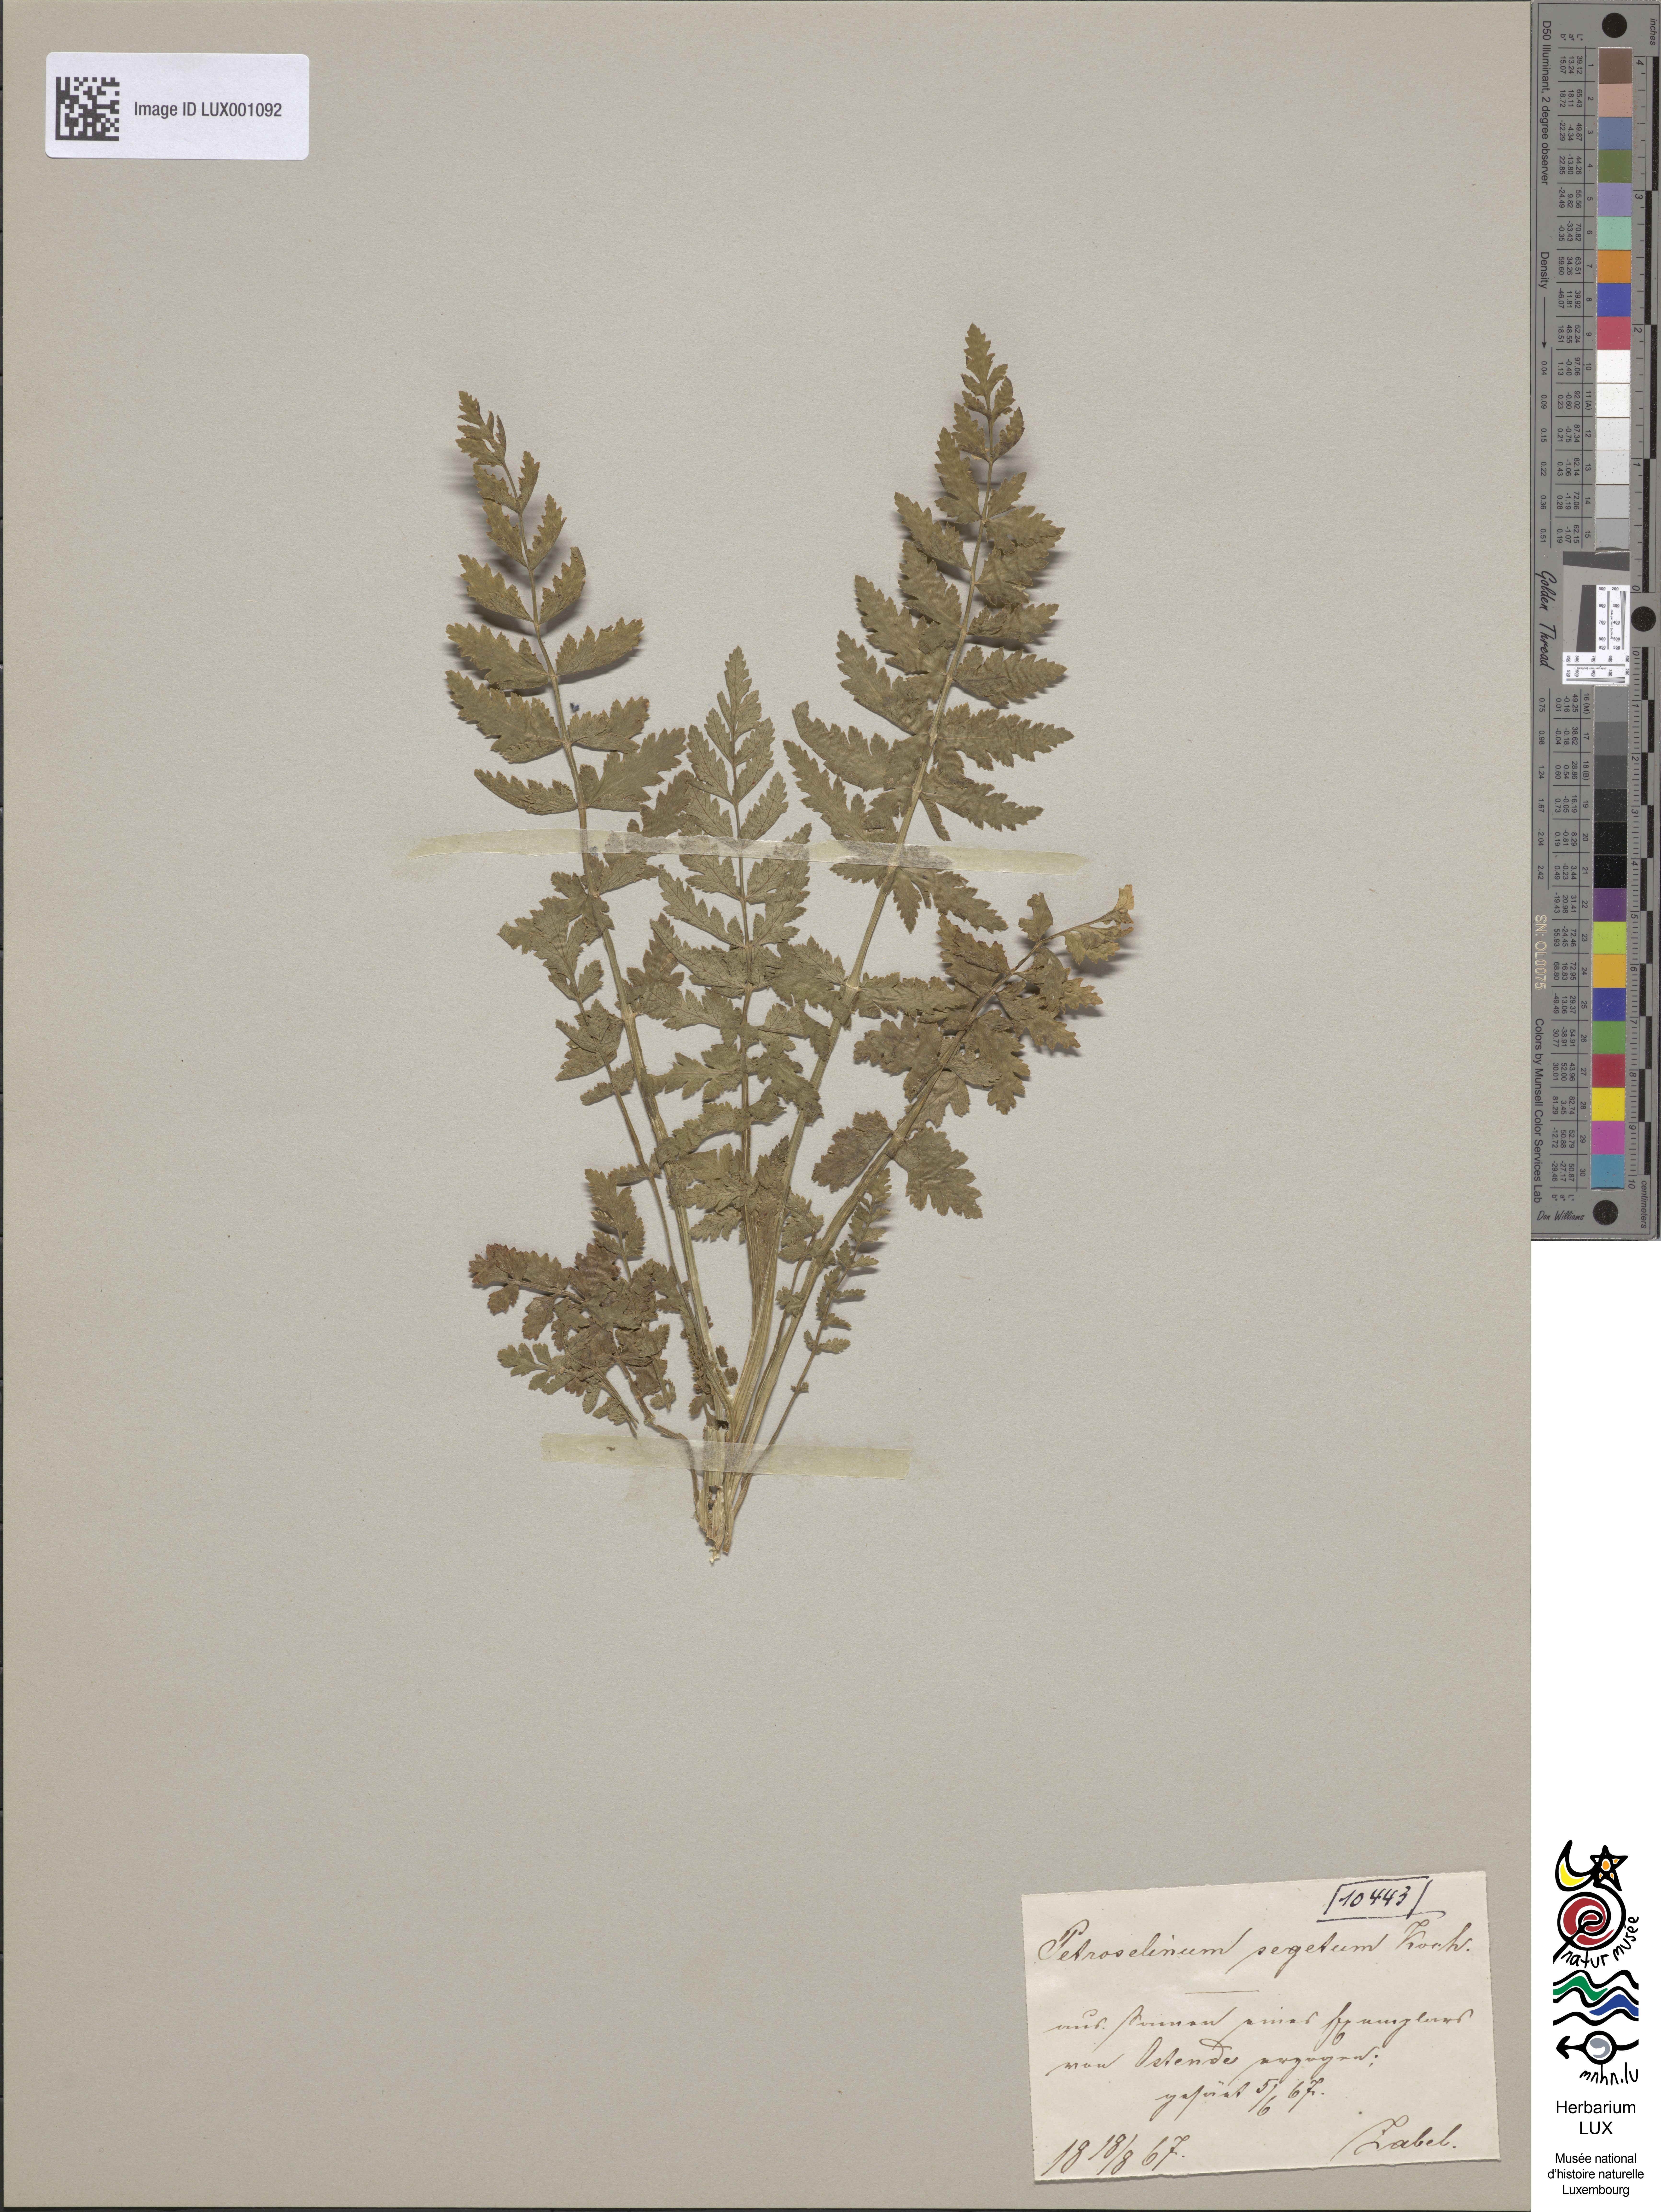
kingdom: Plantae
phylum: Tracheophyta
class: Magnoliopsida
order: Apiales
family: Apiaceae
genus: Sison
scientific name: Sison segetum
